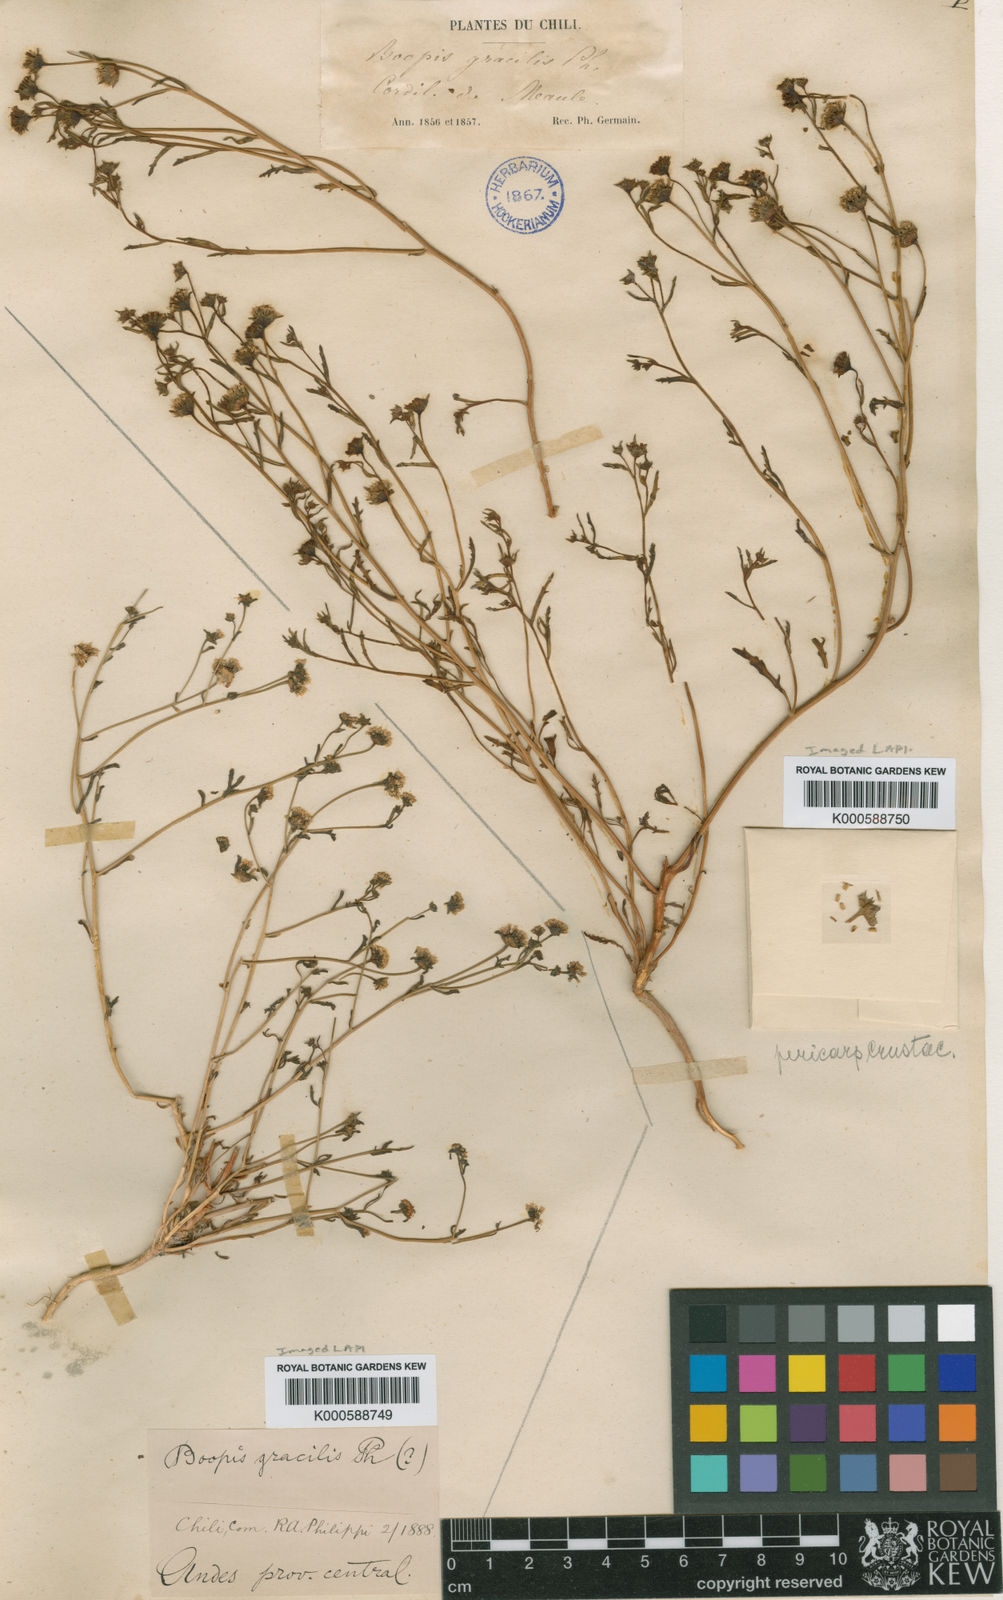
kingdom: Plantae
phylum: Tracheophyta
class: Magnoliopsida
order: Asterales
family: Calyceraceae
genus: Asynthema
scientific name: Asynthema gracile
